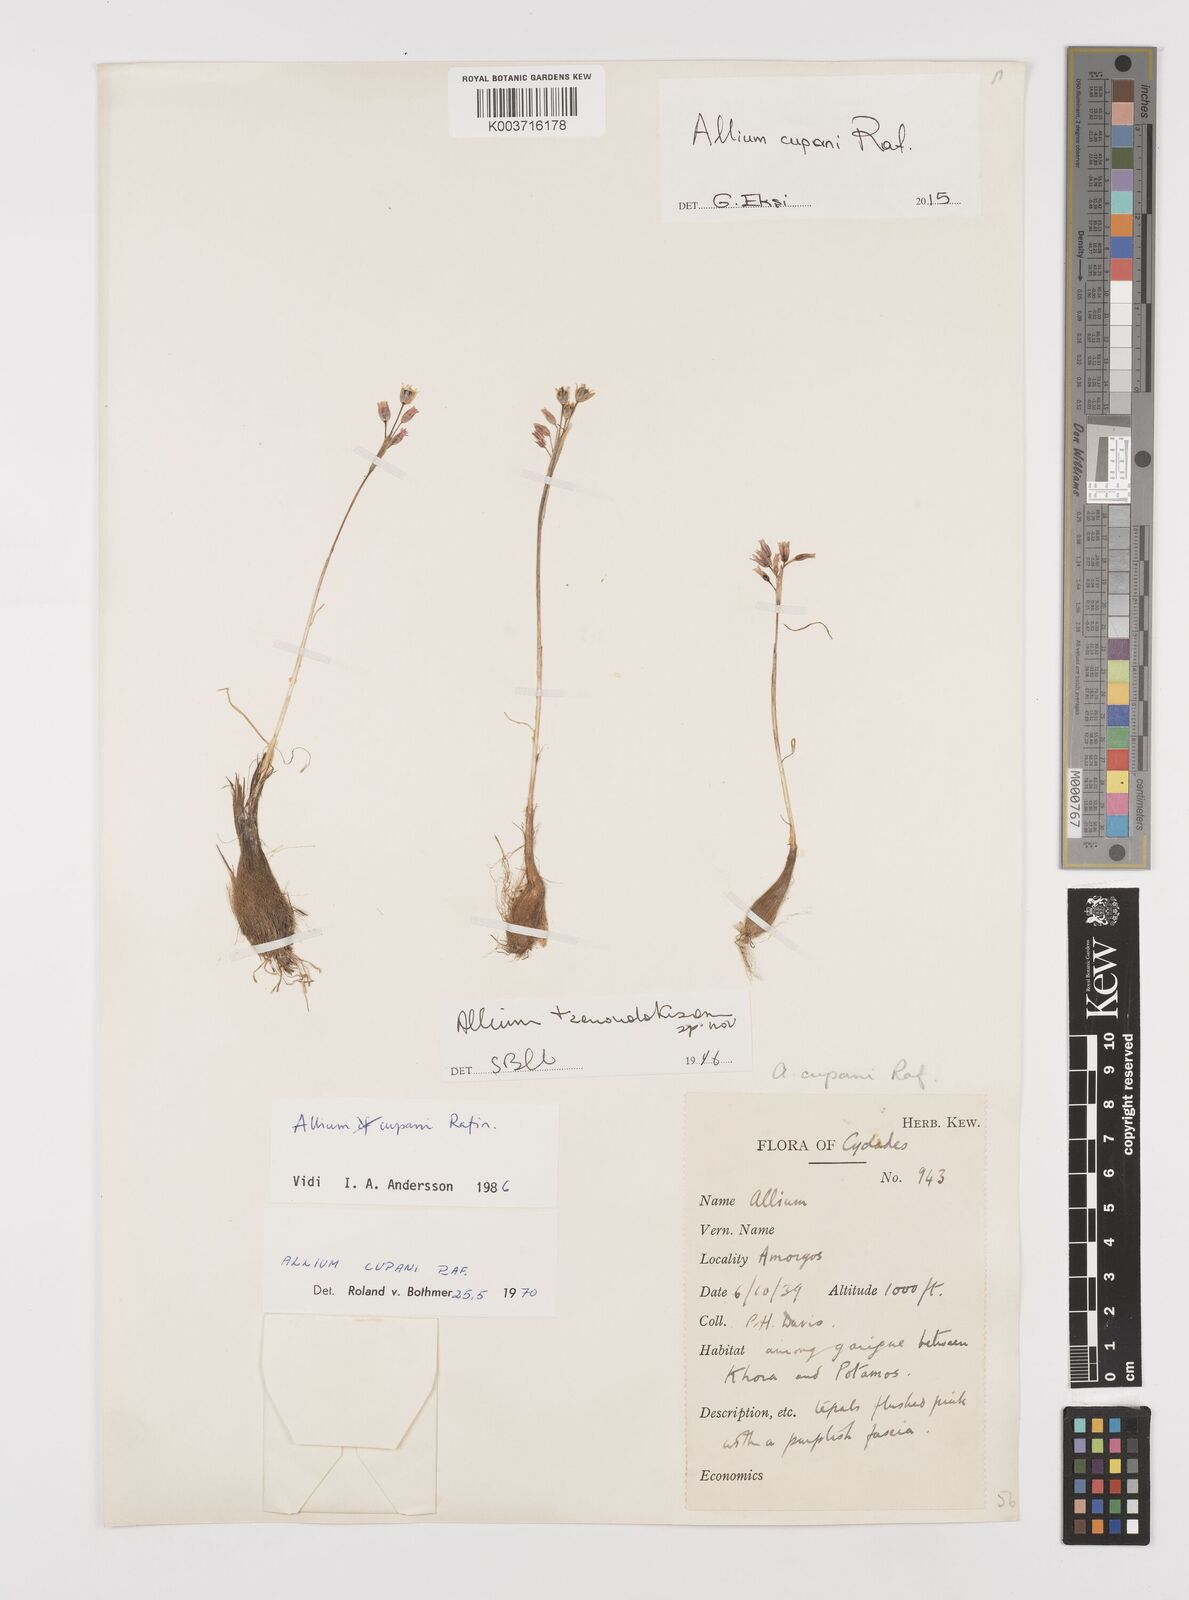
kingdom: Plantae
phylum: Tracheophyta
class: Liliopsida
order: Asparagales
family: Amaryllidaceae
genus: Allium
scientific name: Allium cupani
